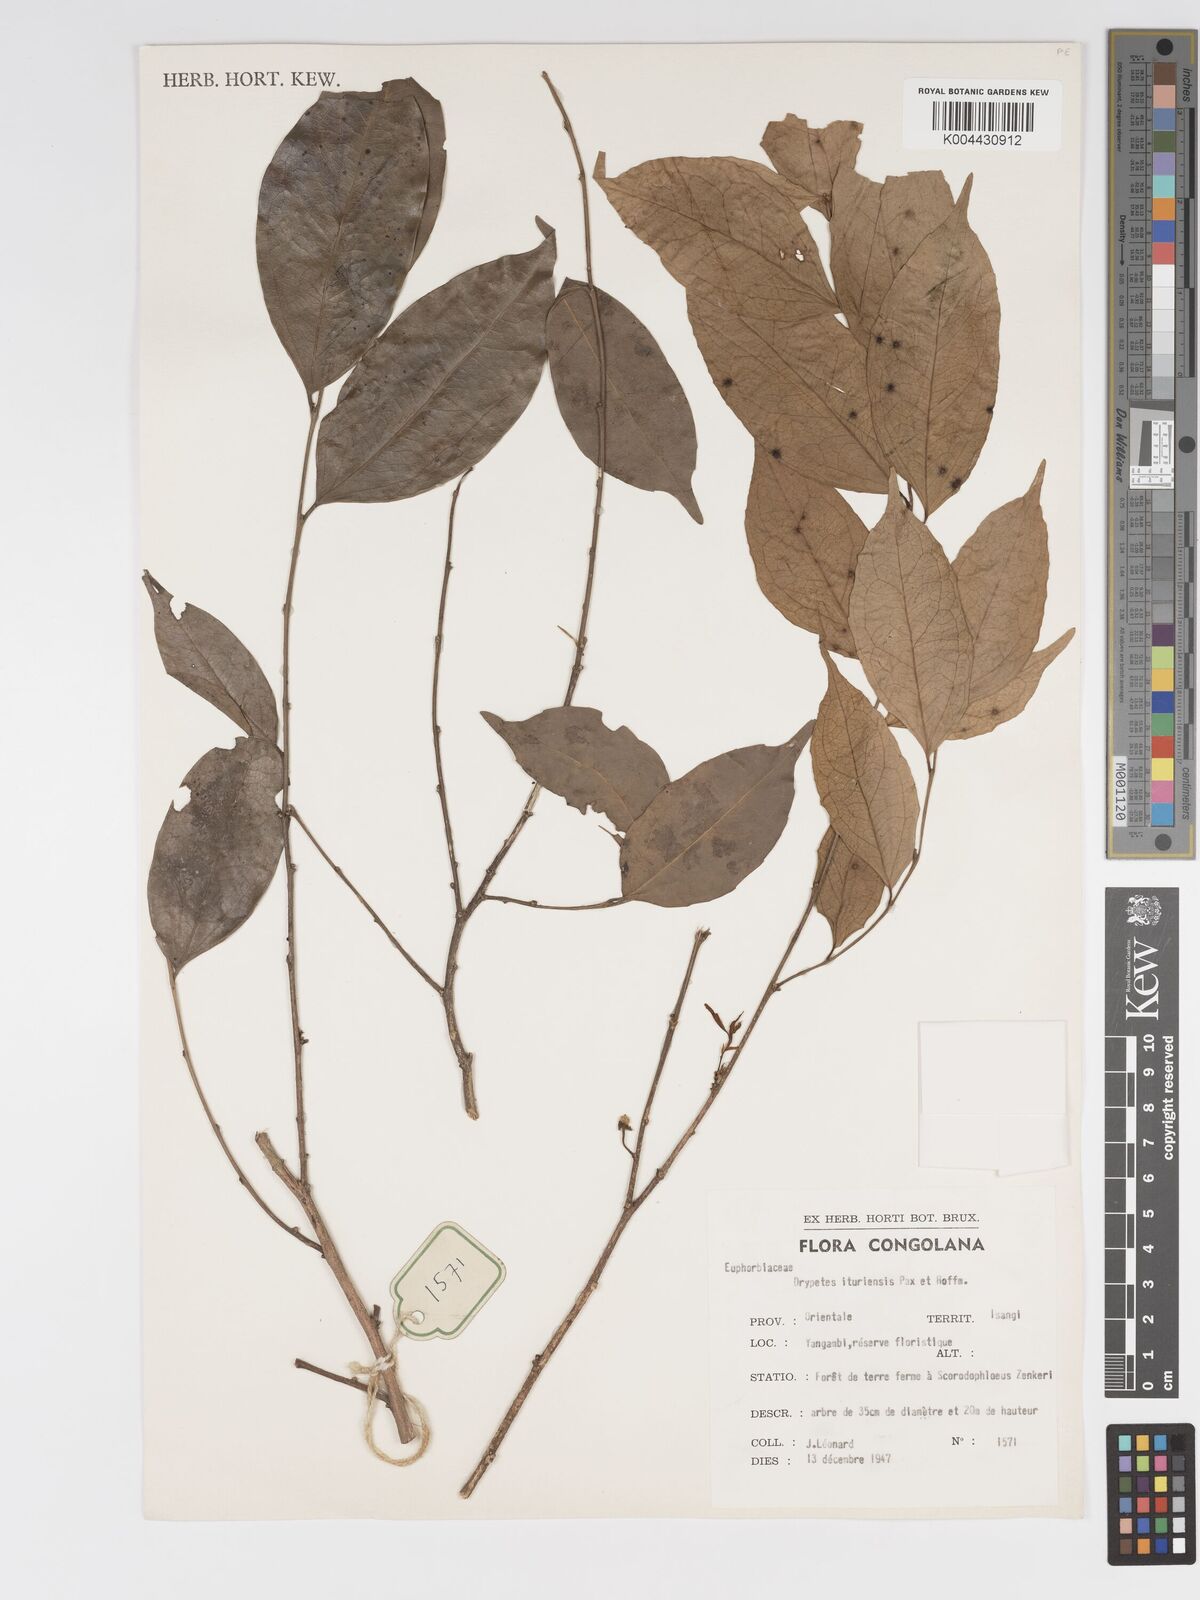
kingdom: Plantae
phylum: Tracheophyta
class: Magnoliopsida
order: Malpighiales
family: Putranjivaceae
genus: Drypetes
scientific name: Drypetes ituriensis
